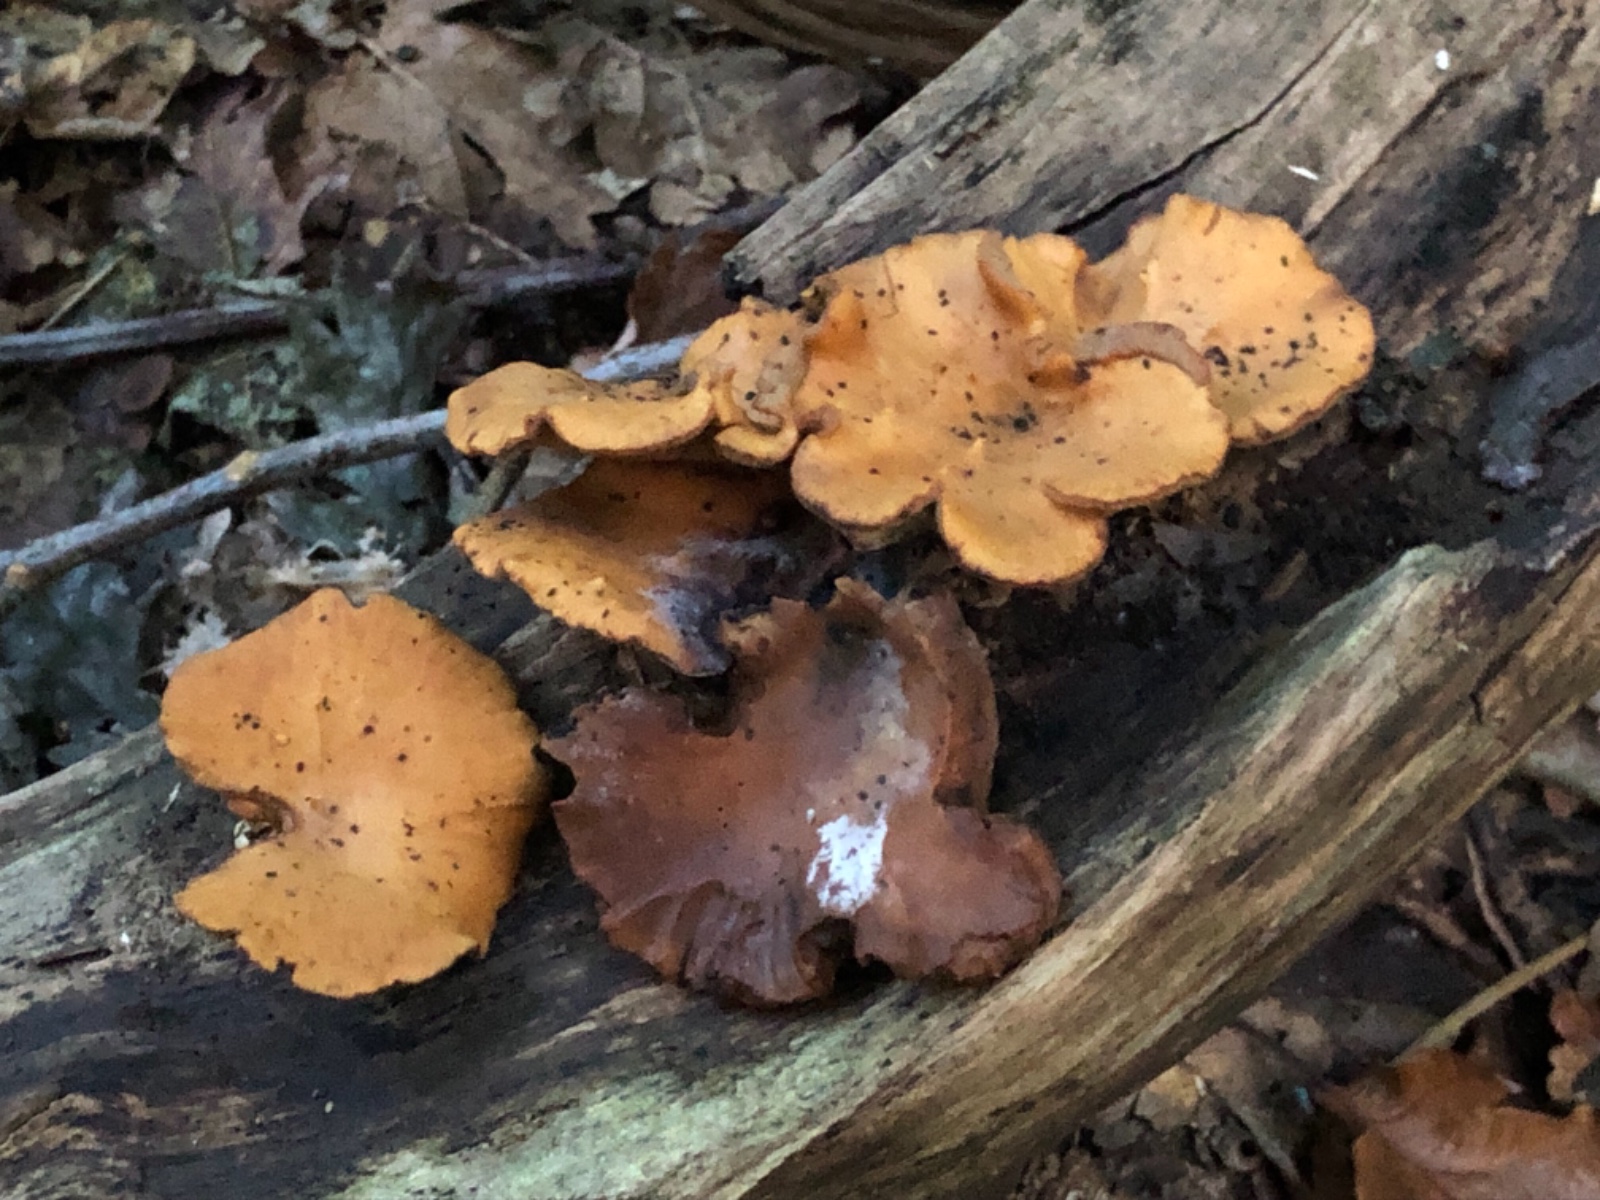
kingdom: Fungi
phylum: Basidiomycota
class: Agaricomycetes
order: Polyporales
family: Polyporaceae
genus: Cerioporus
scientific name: Cerioporus varius
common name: foranderlig stilkporesvamp
